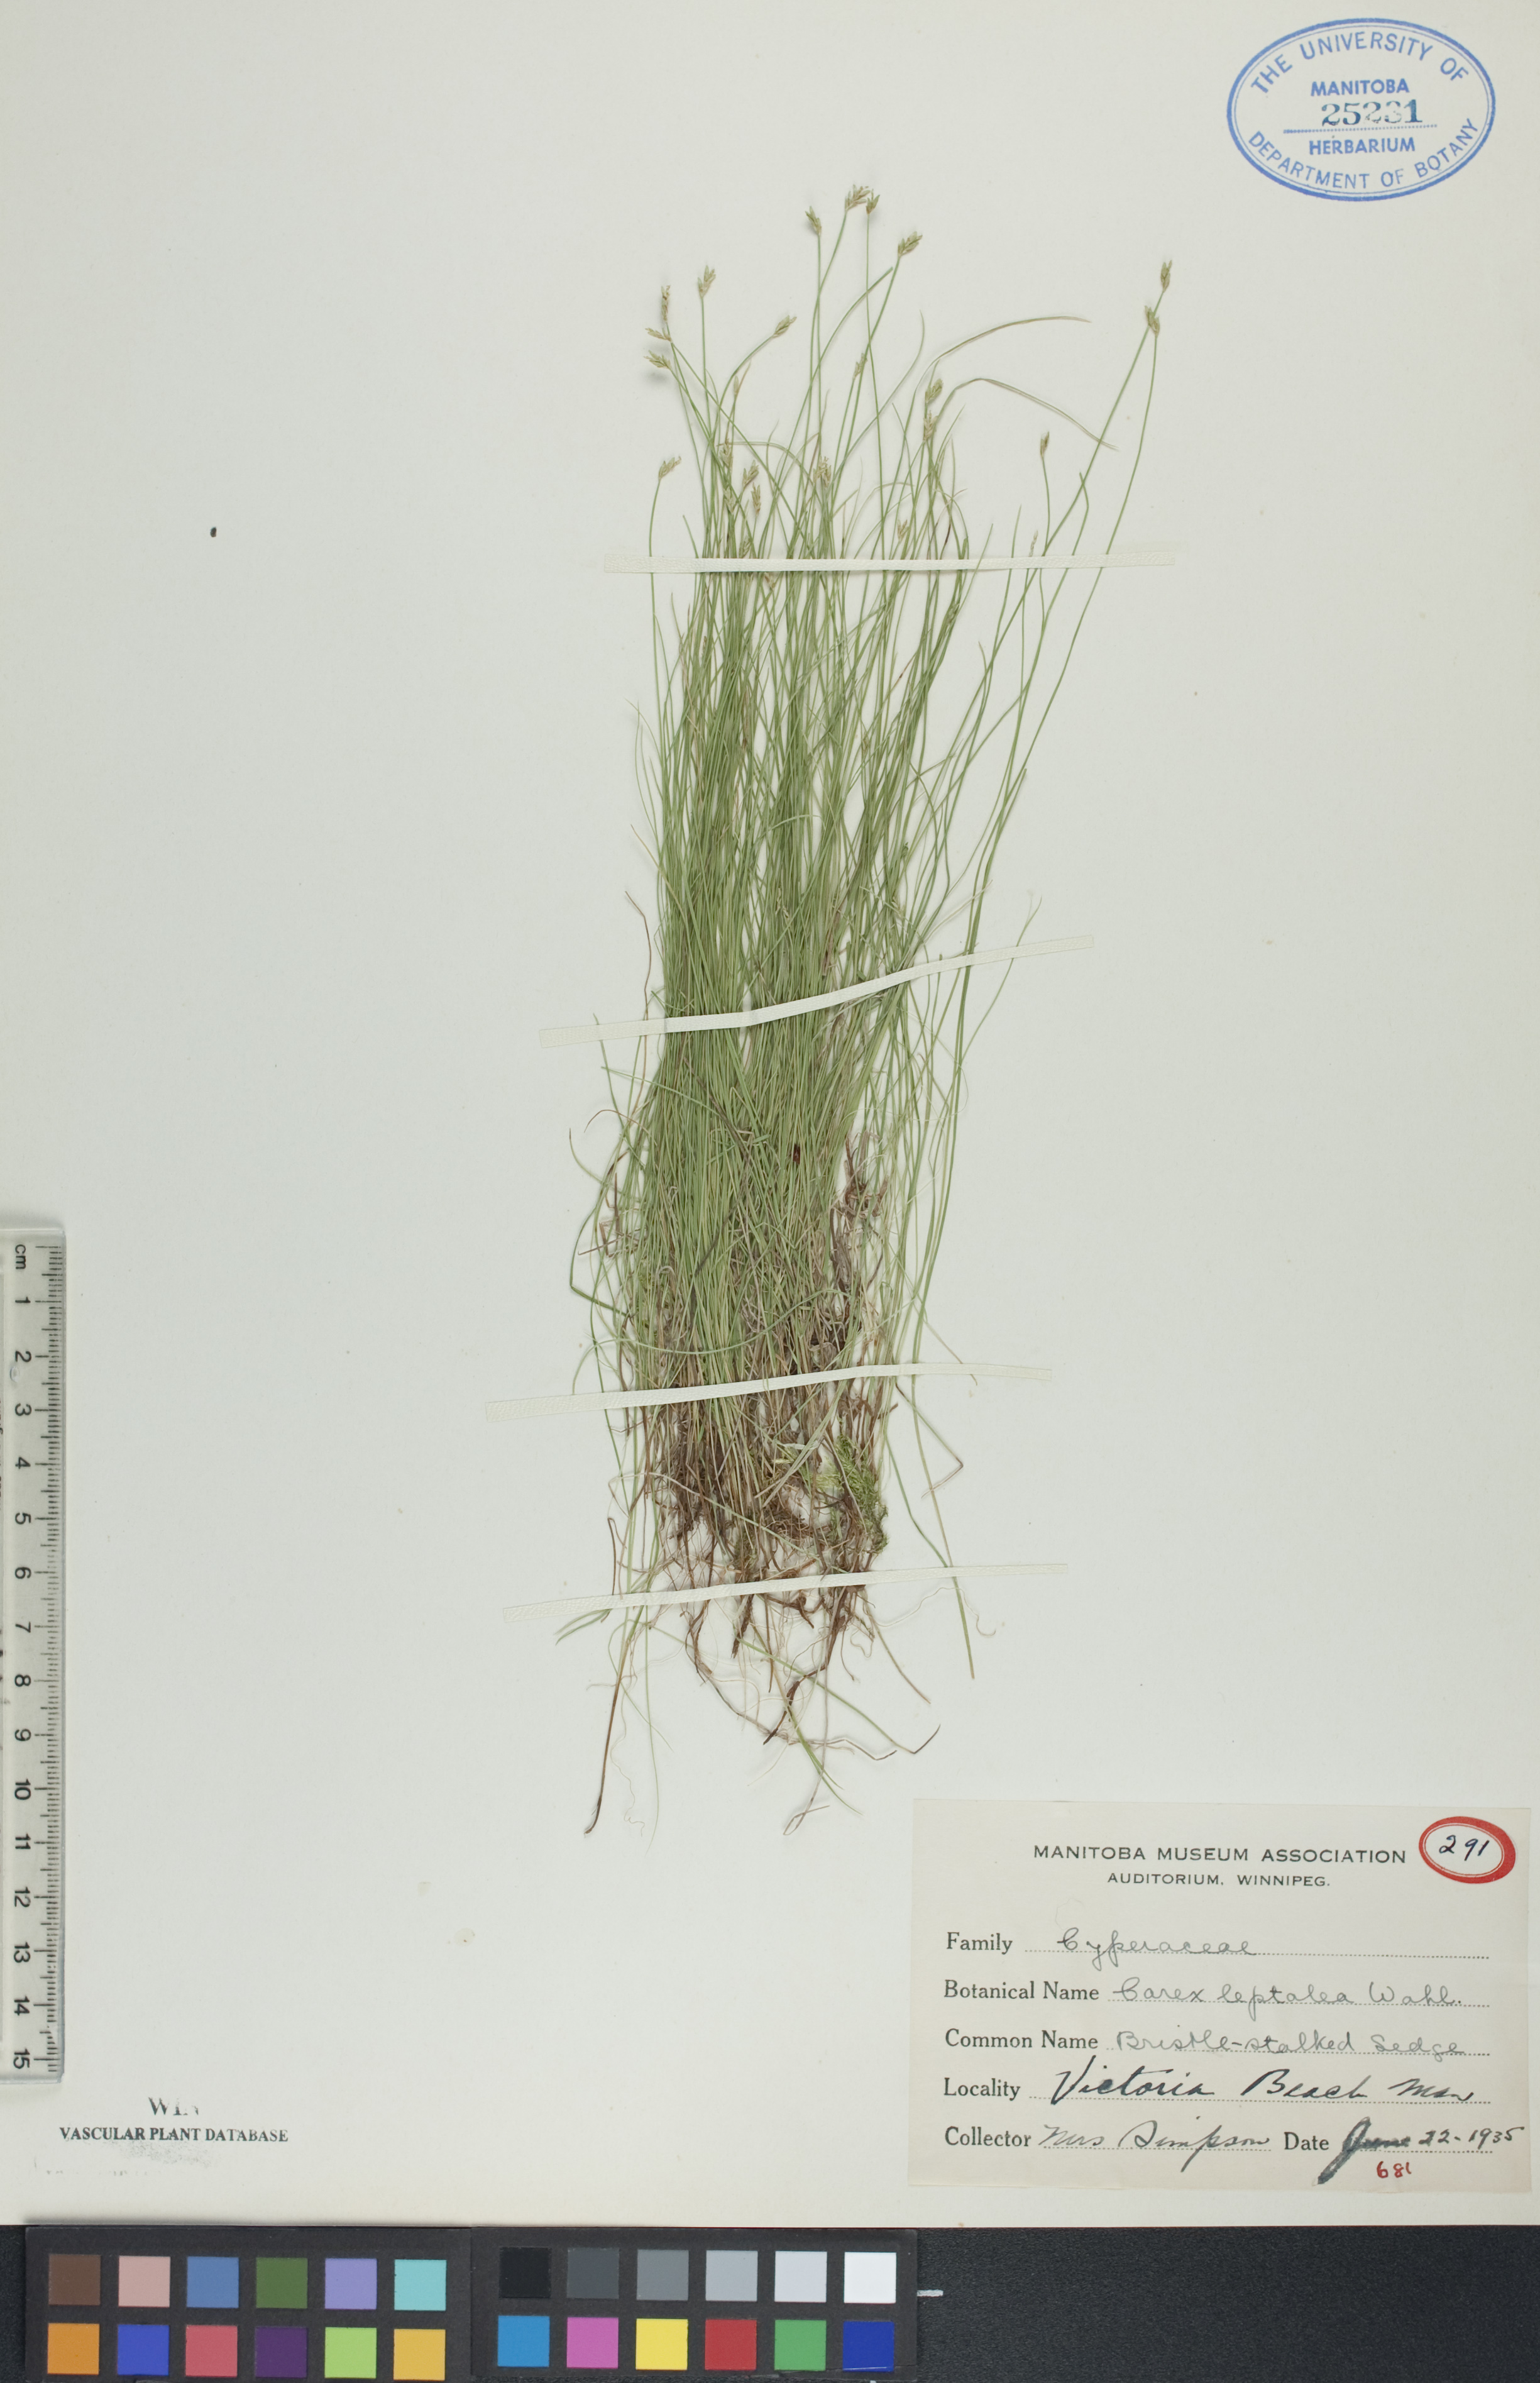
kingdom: Plantae
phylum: Tracheophyta
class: Liliopsida
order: Poales
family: Cyperaceae
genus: Carex
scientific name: Carex leptalea
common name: Bristly-stalked sedge
